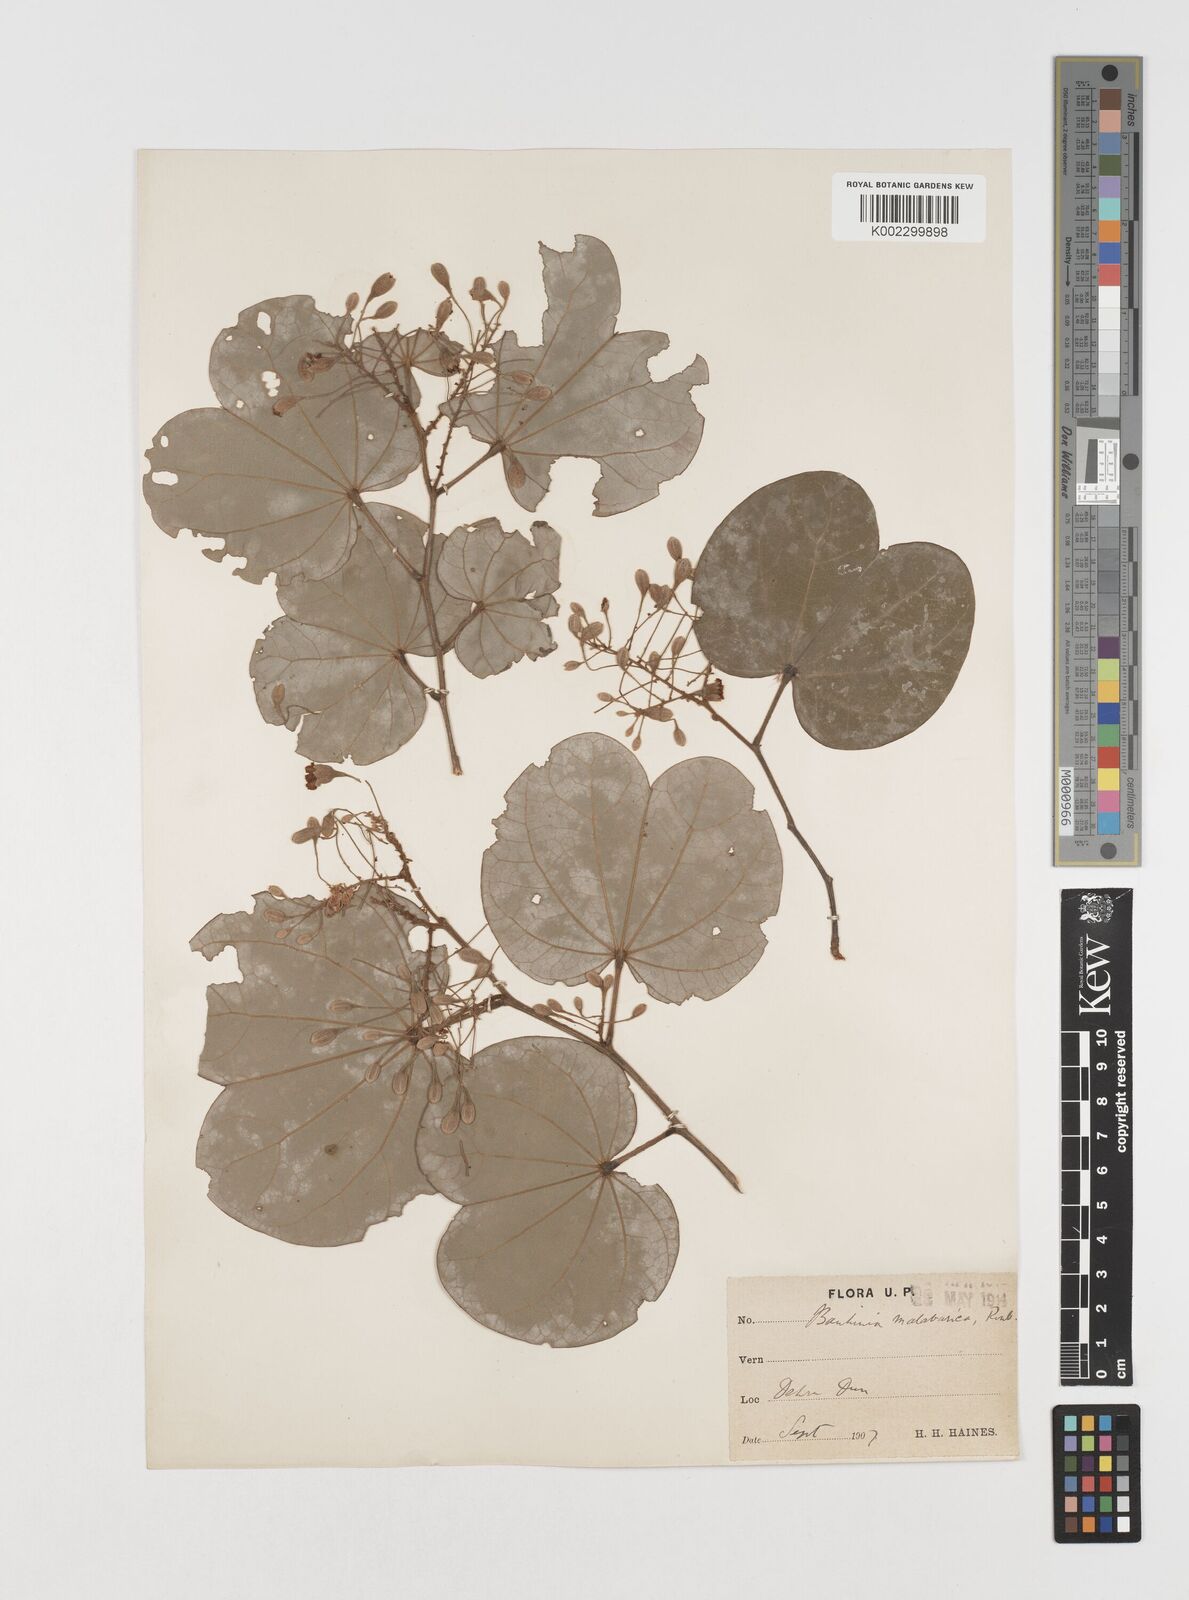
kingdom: Plantae
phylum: Tracheophyta
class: Magnoliopsida
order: Fabales
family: Fabaceae
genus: Piliostigma
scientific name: Piliostigma malabaricum
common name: Malabar bauhinia
